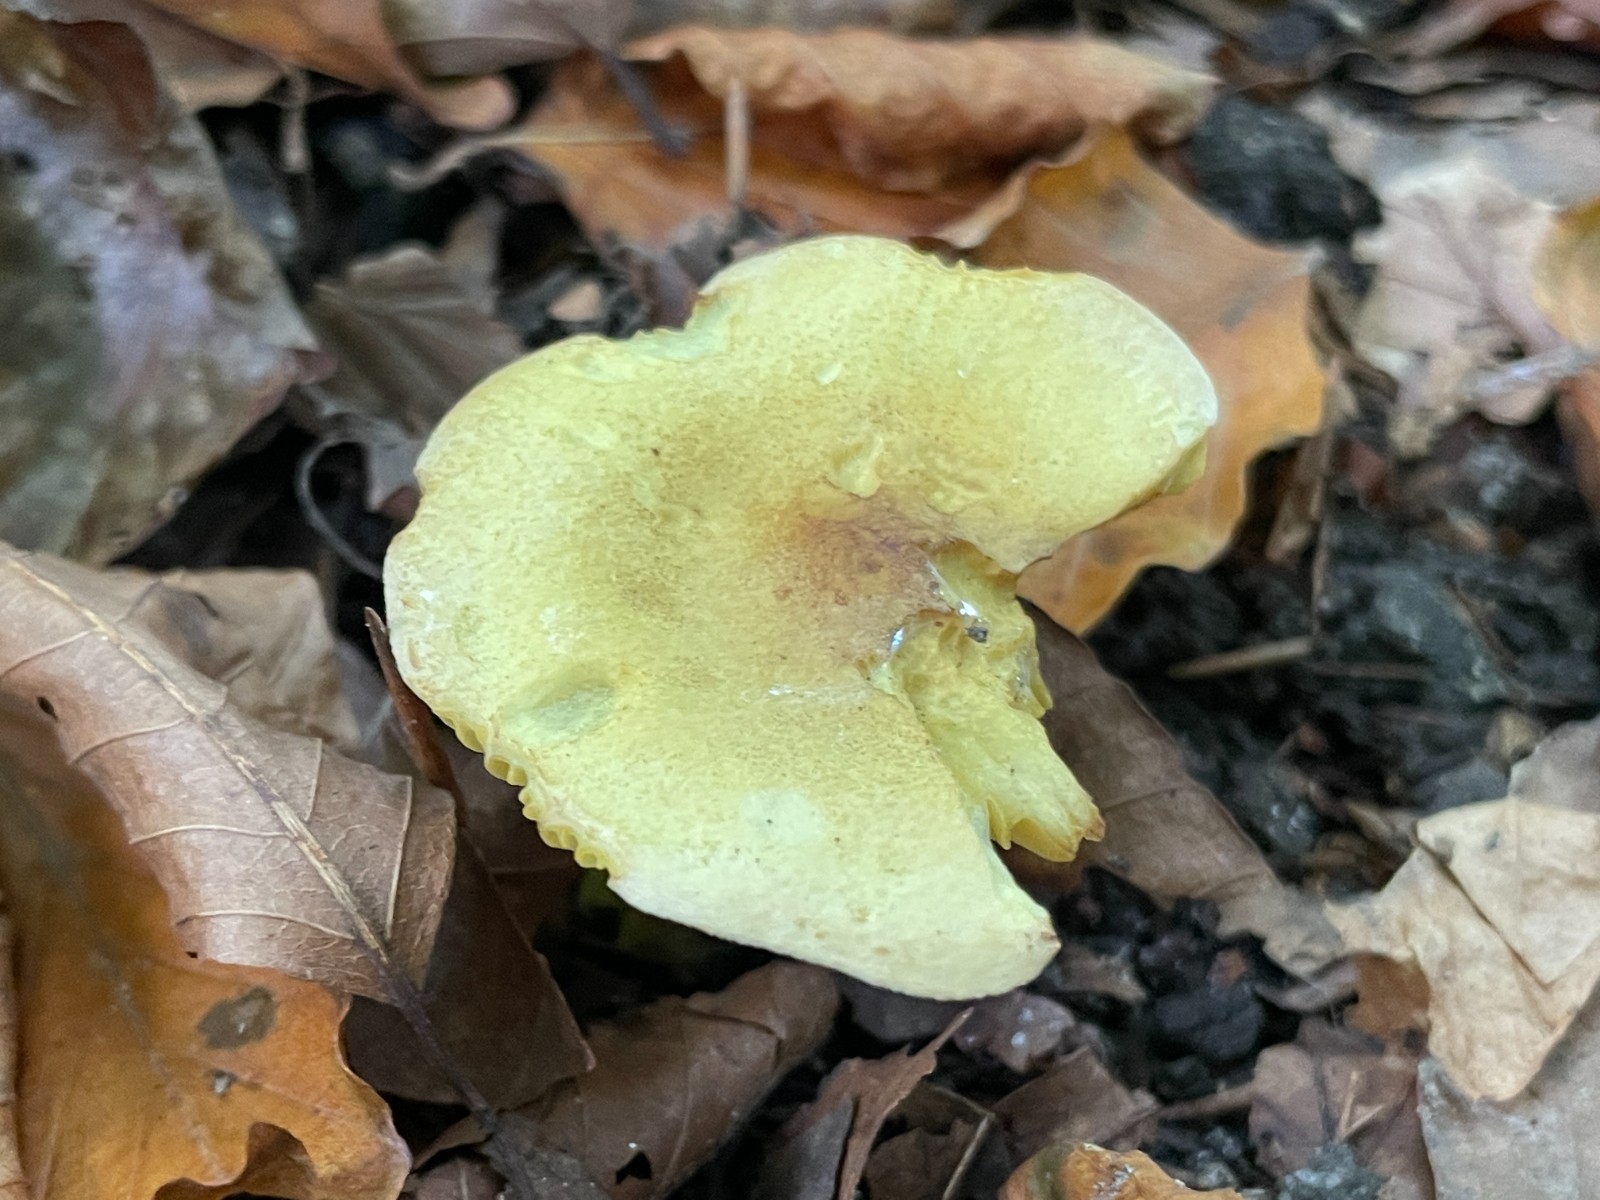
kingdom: Fungi
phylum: Basidiomycota
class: Agaricomycetes
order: Agaricales
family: Tricholomataceae
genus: Tricholoma
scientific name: Tricholoma sulphureum
